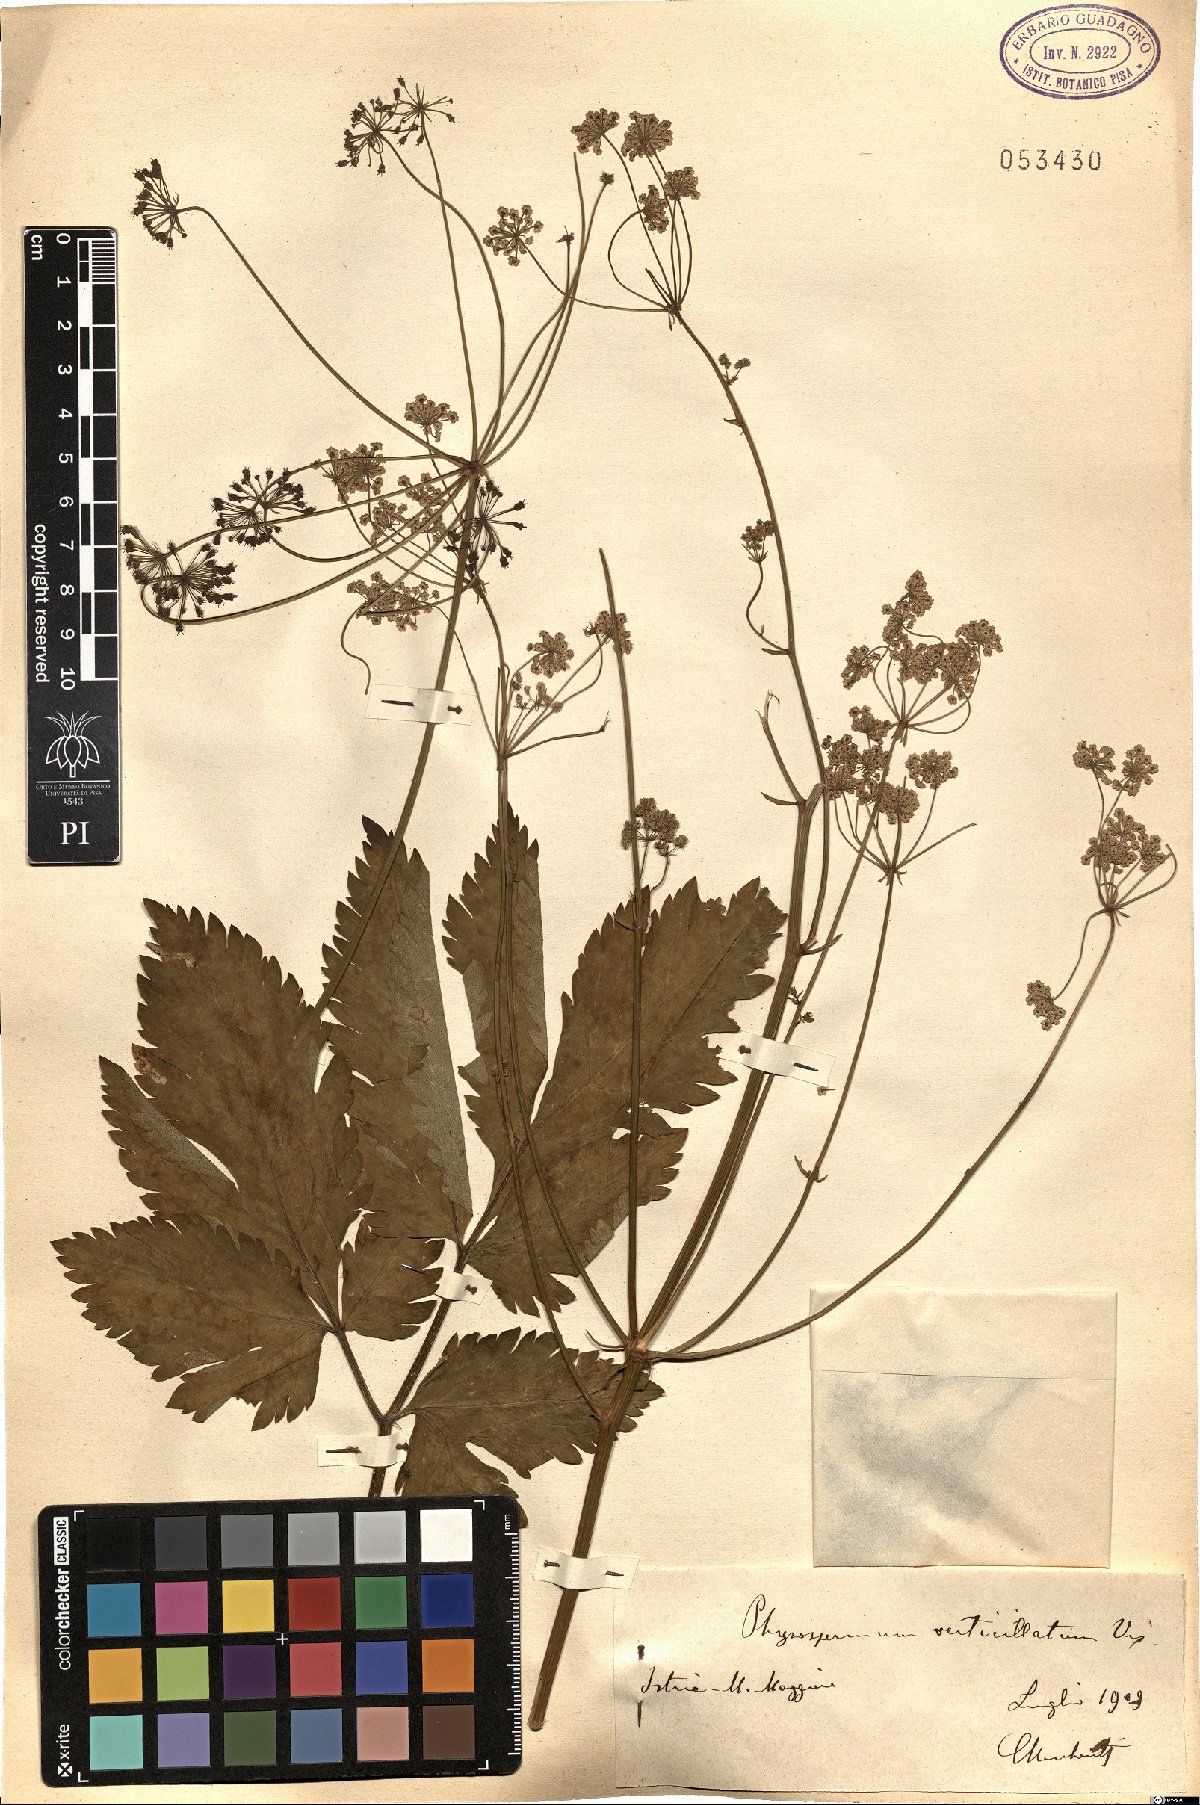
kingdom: Plantae
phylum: Tracheophyta
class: Magnoliopsida
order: Apiales
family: Apiaceae
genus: Physospermum
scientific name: Physospermum verticillatum
